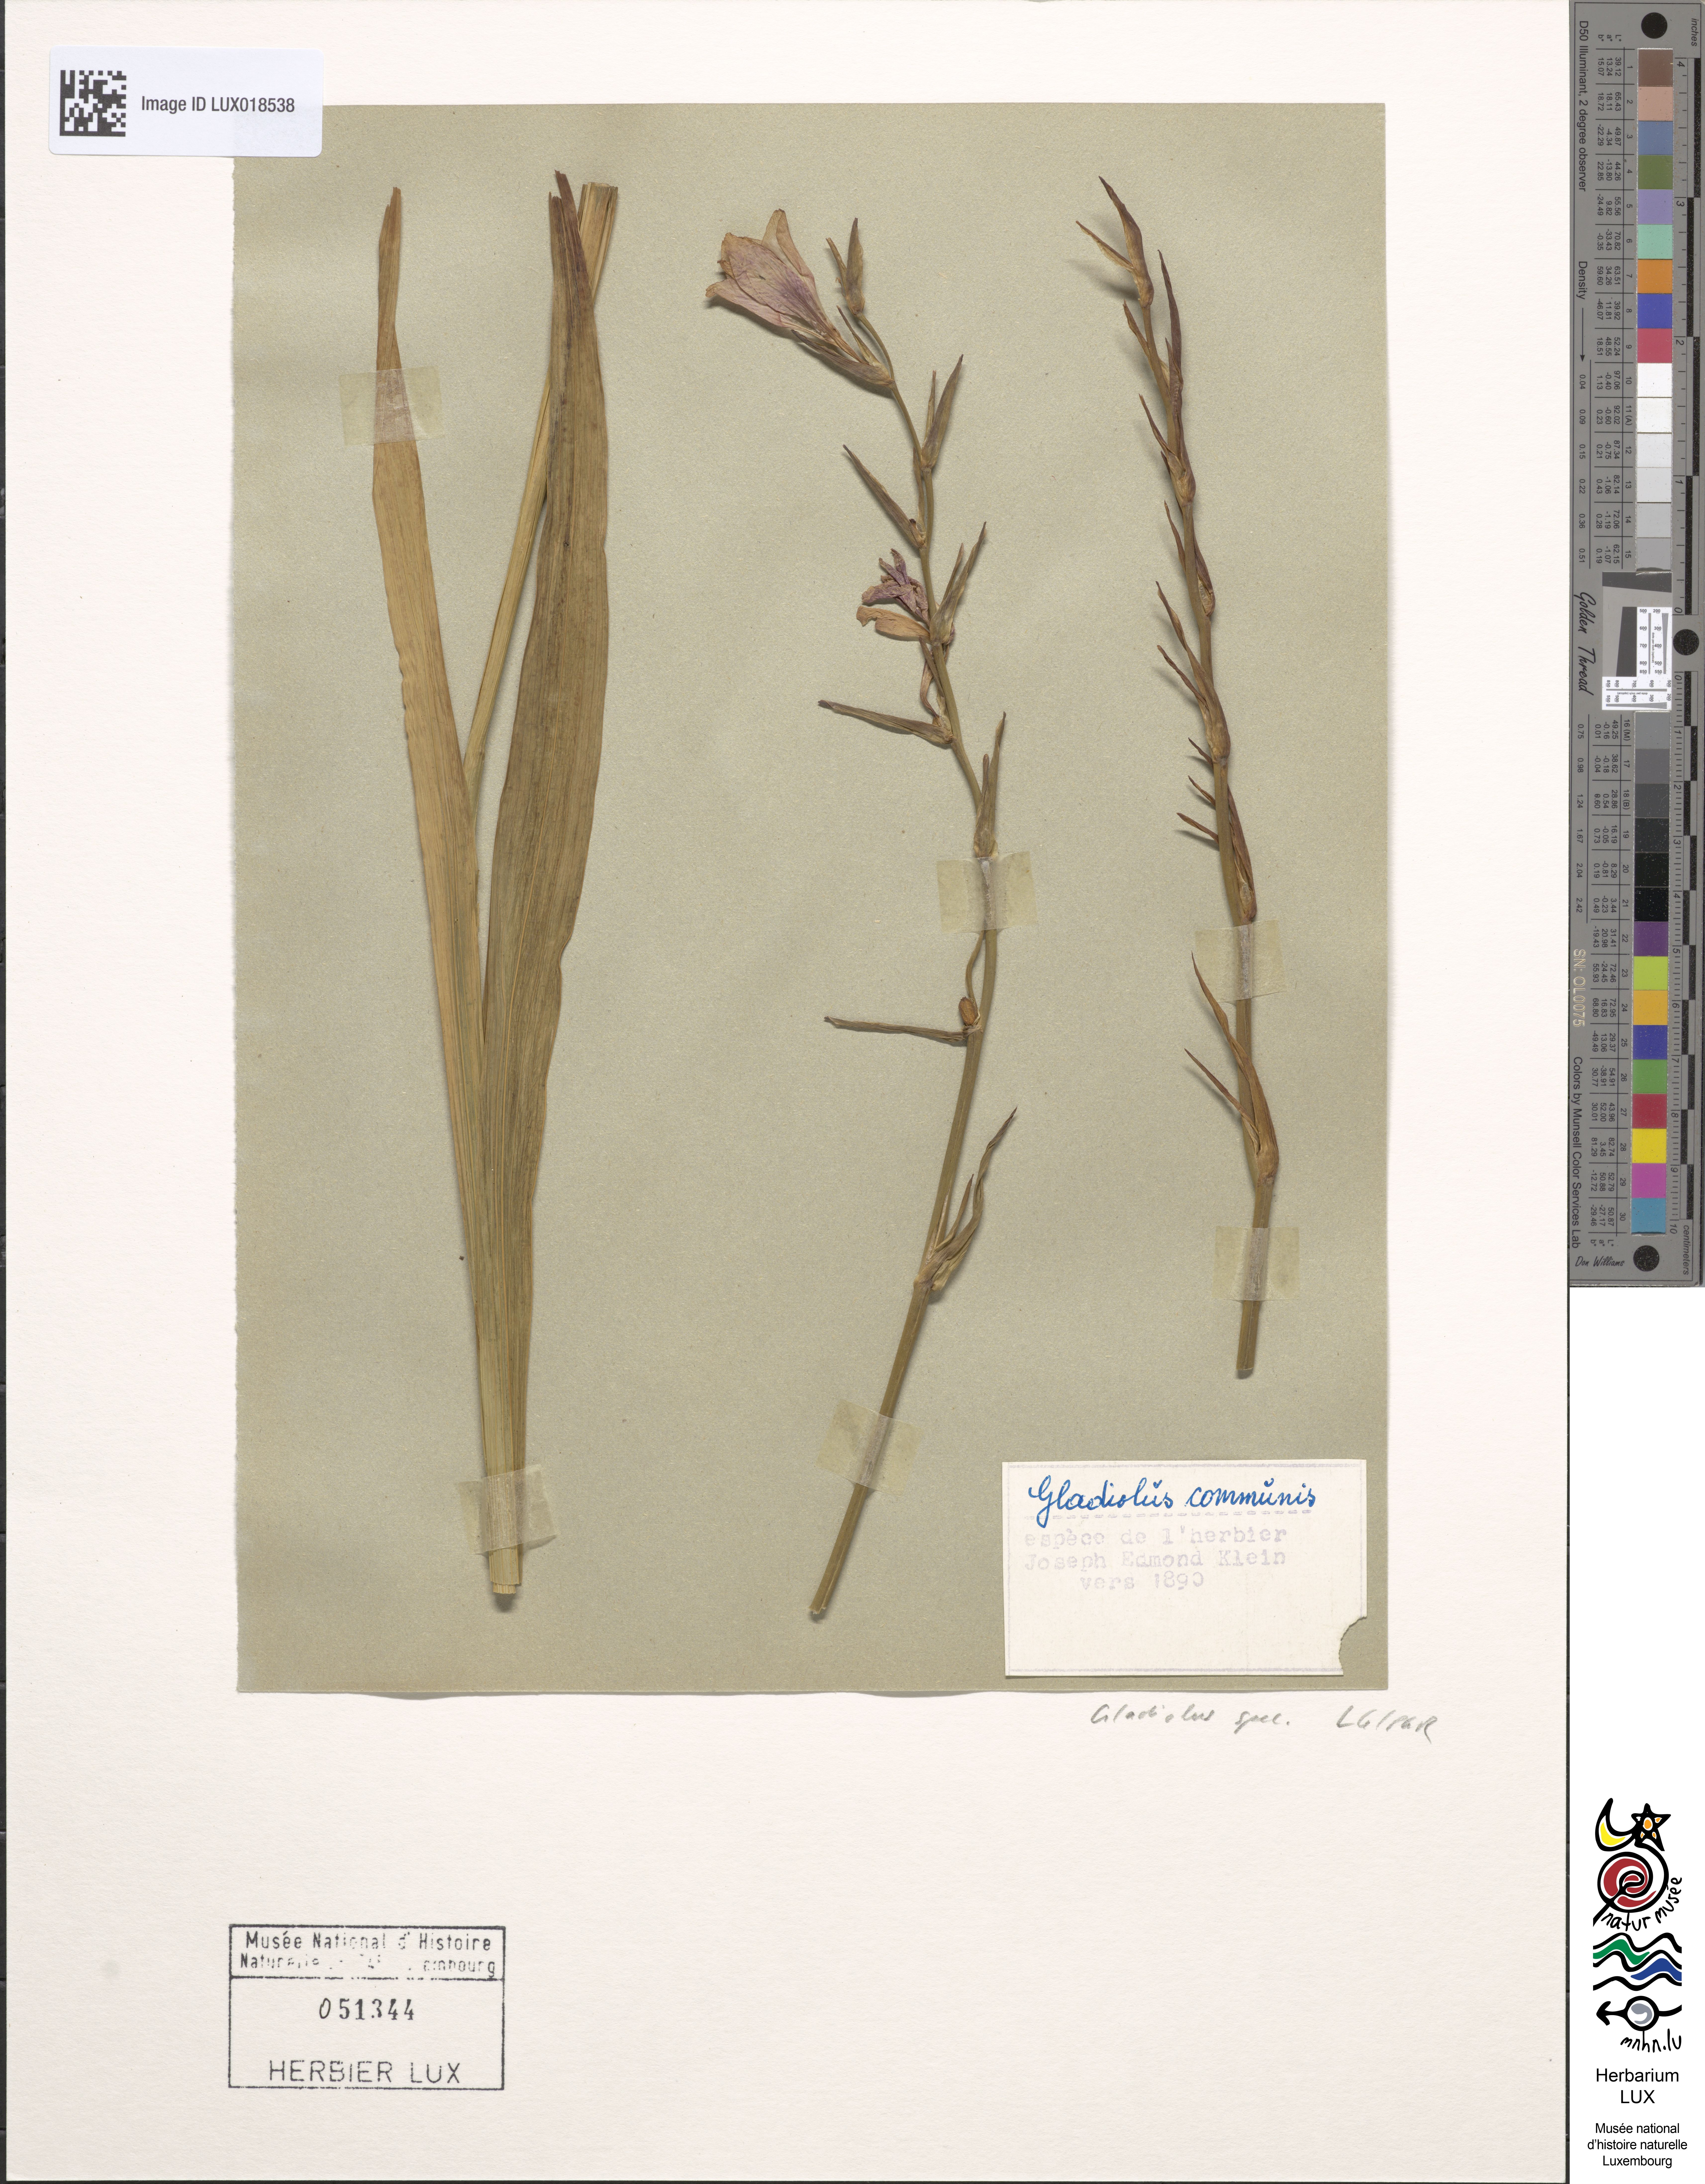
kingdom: Plantae
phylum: Tracheophyta
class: Liliopsida
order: Asparagales
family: Iridaceae
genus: Gladiolus
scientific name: Gladiolus
